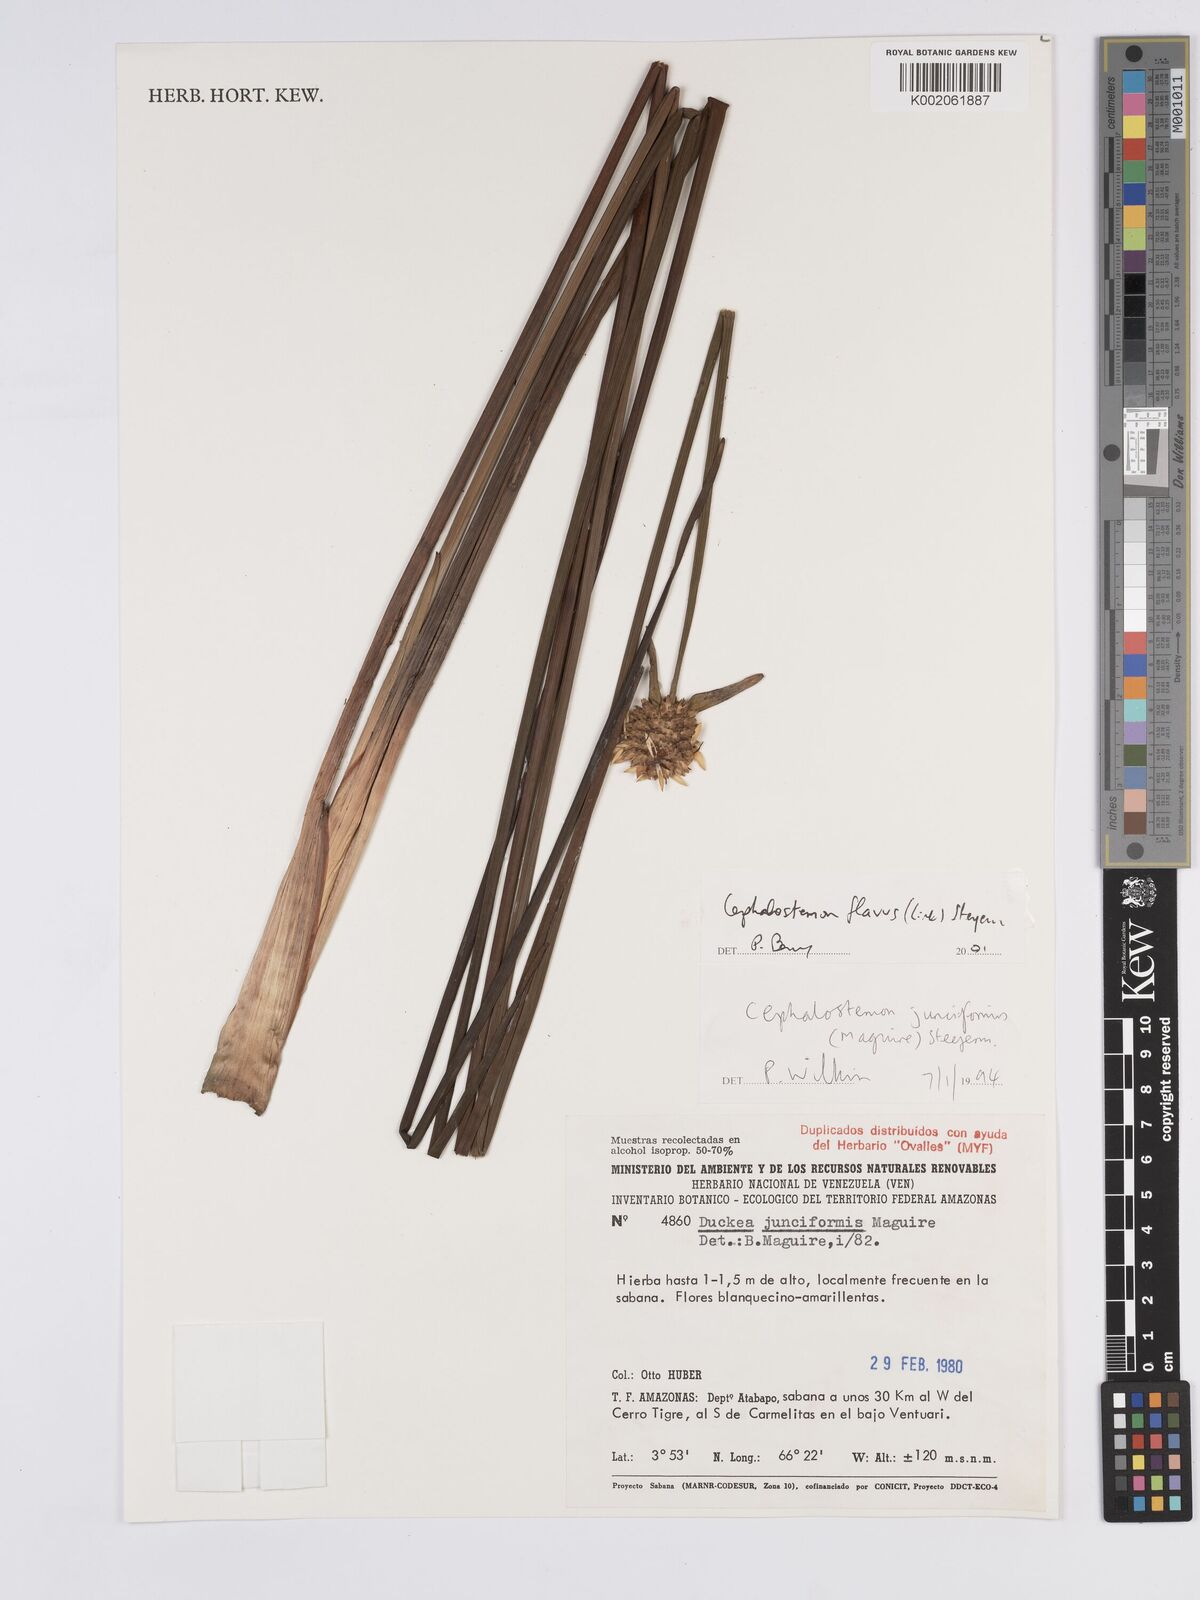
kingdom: Plantae
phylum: Tracheophyta
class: Liliopsida
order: Poales
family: Rapateaceae
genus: Duckea
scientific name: Duckea flava
